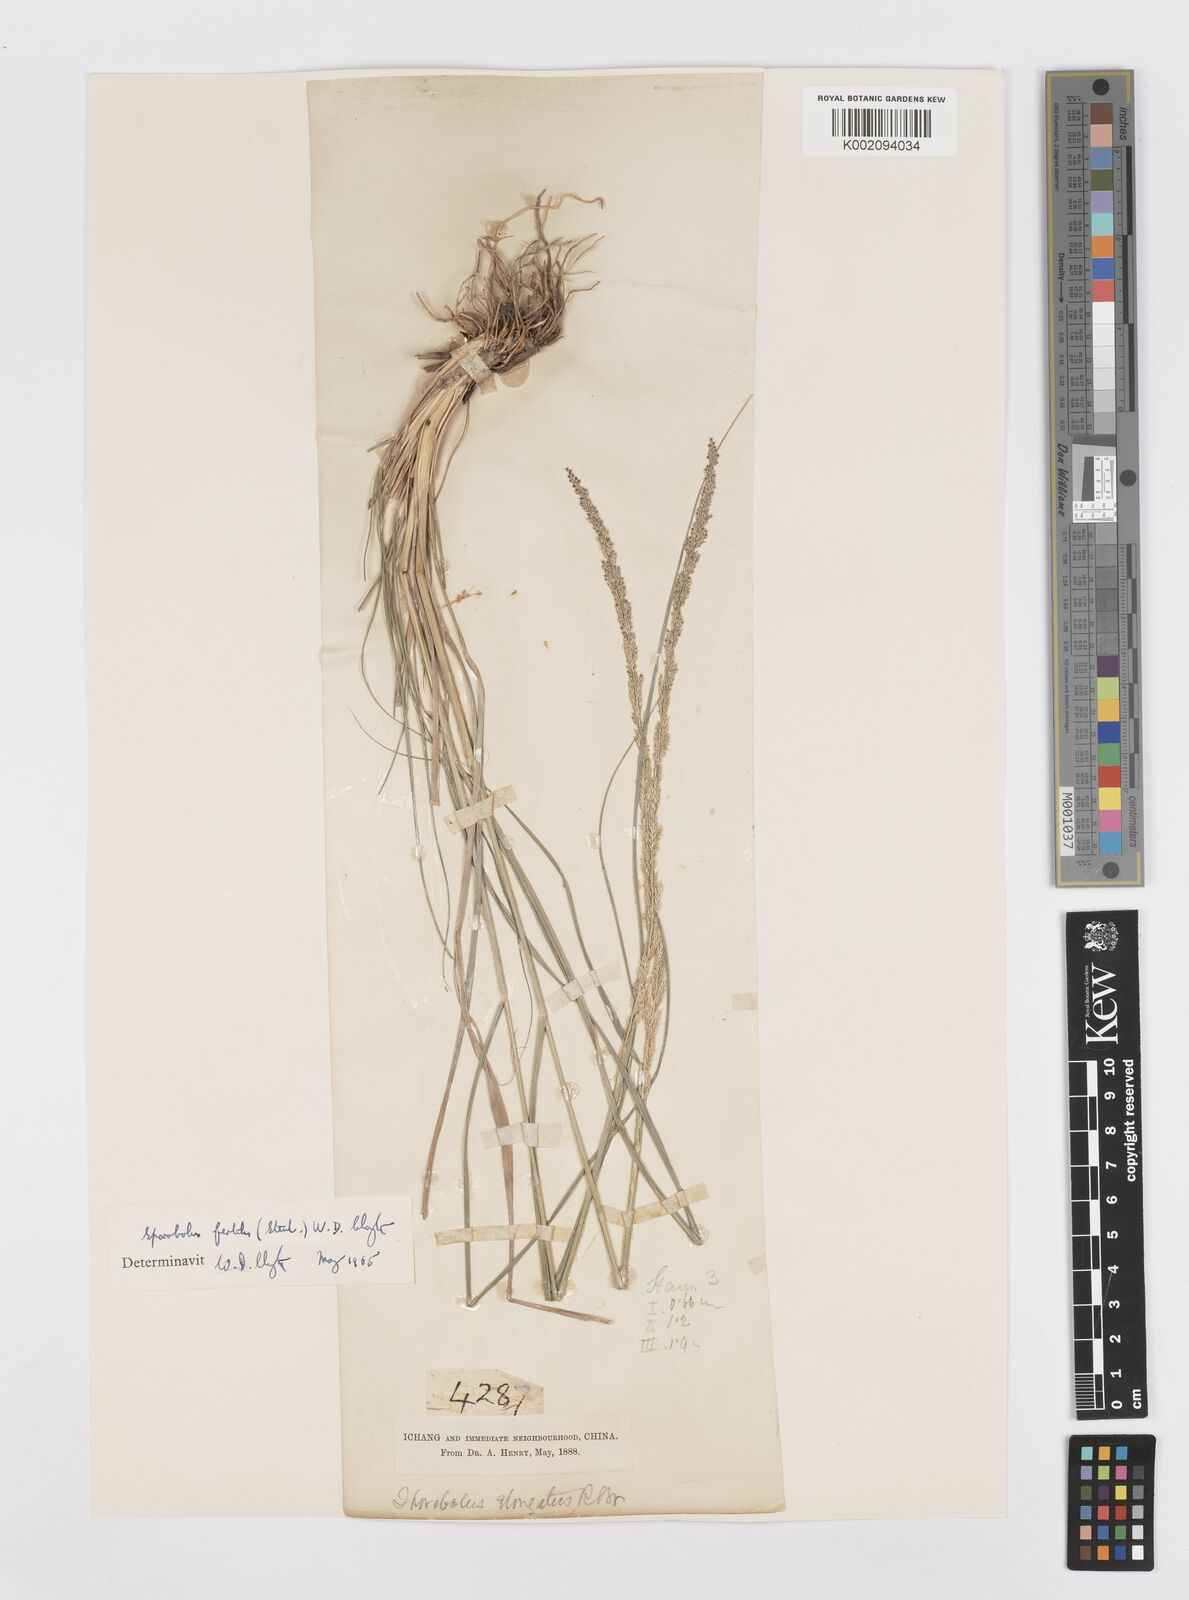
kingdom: Plantae
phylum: Tracheophyta
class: Liliopsida
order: Poales
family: Poaceae
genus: Sporobolus
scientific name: Sporobolus fertilis
